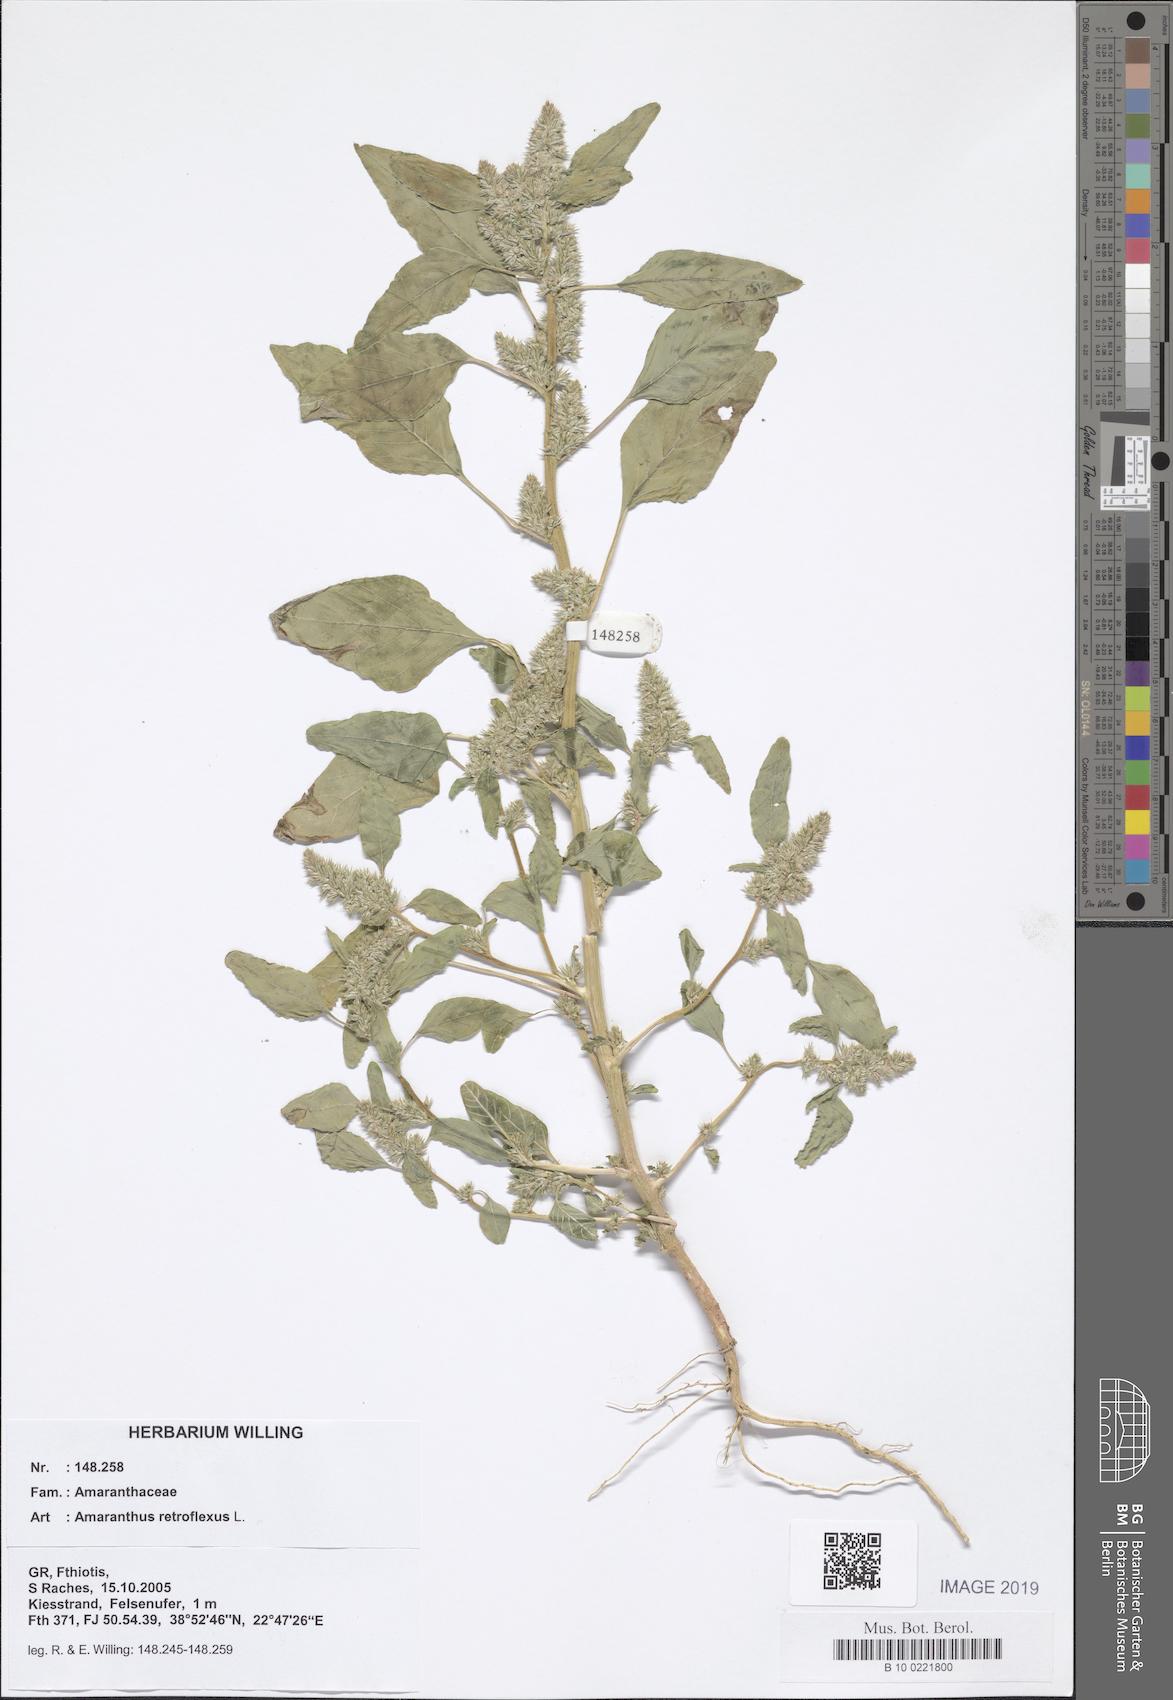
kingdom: Plantae
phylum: Tracheophyta
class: Magnoliopsida
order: Caryophyllales
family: Amaranthaceae
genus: Amaranthus
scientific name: Amaranthus retroflexus
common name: Redroot amaranth
